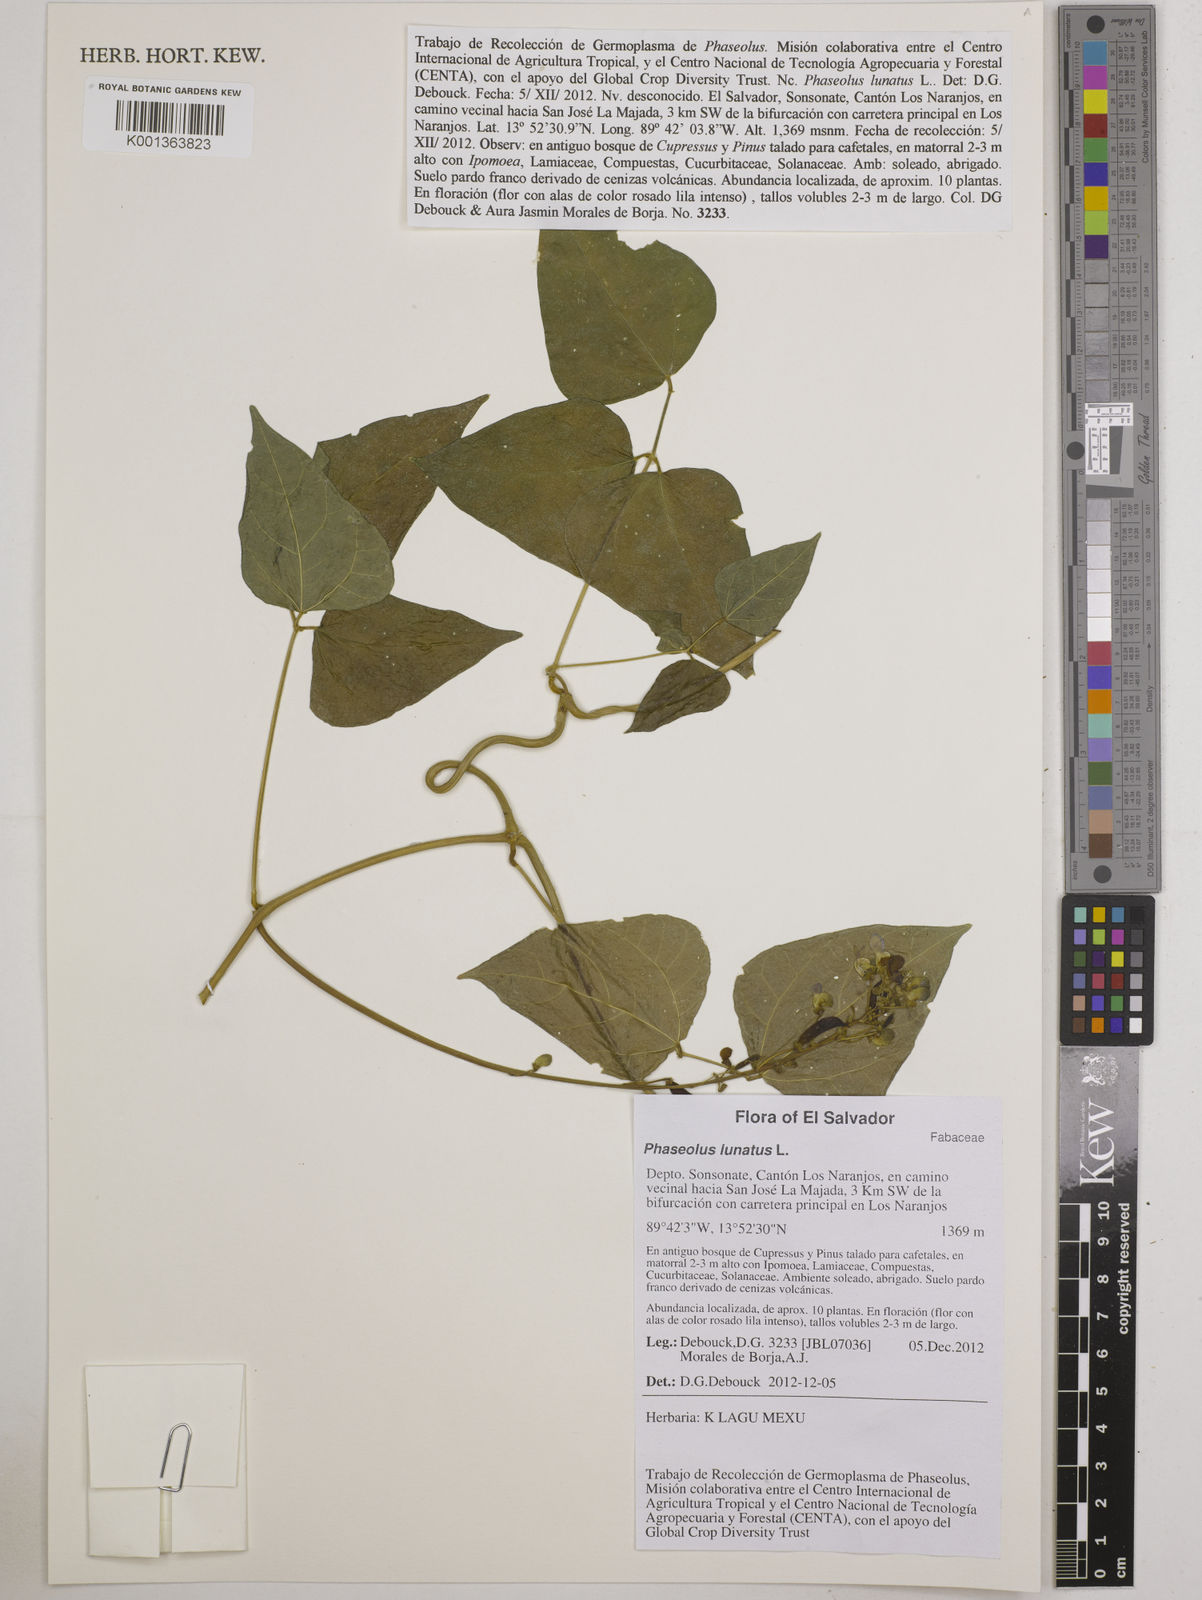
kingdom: Plantae
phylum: Tracheophyta
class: Magnoliopsida
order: Fabales
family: Fabaceae
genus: Phaseolus
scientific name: Phaseolus lunatus
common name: Sieva bean
